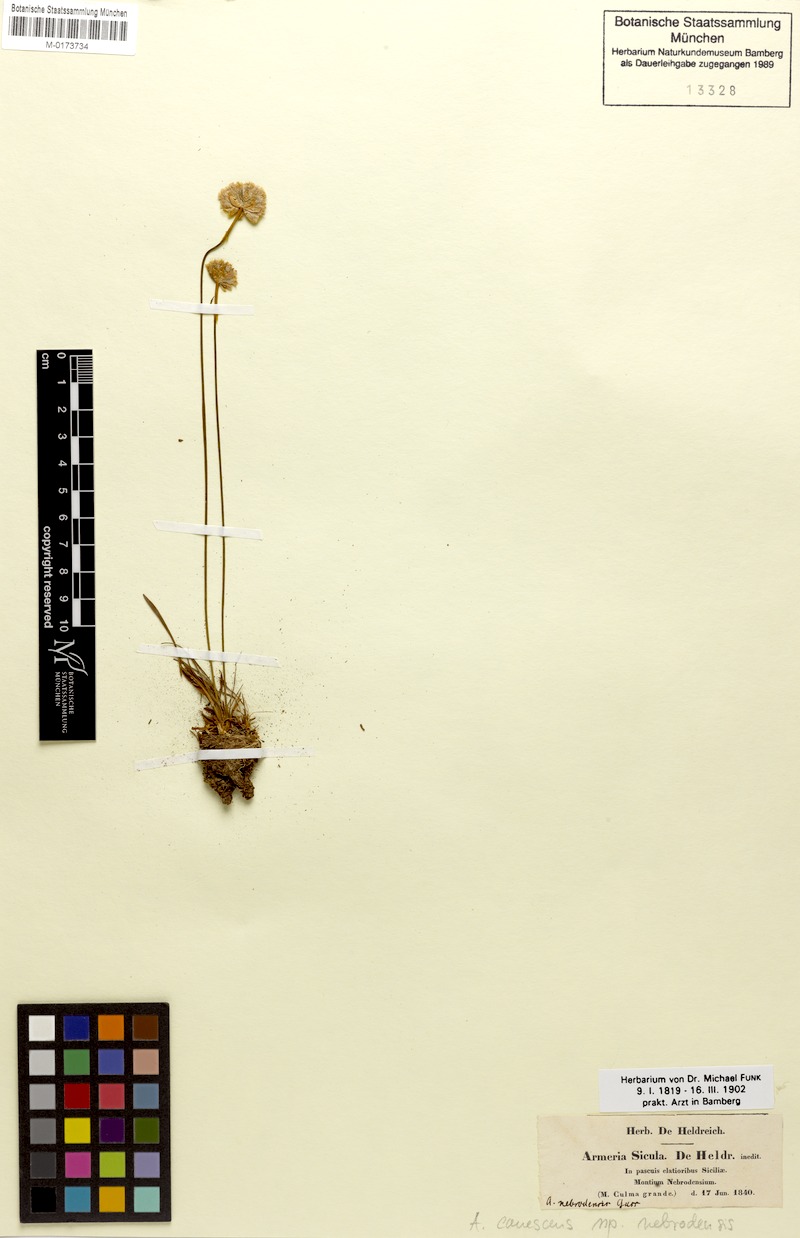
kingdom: Plantae
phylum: Tracheophyta
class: Magnoliopsida
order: Caryophyllales
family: Plumbaginaceae
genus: Armeria
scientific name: Armeria nebrodensis
